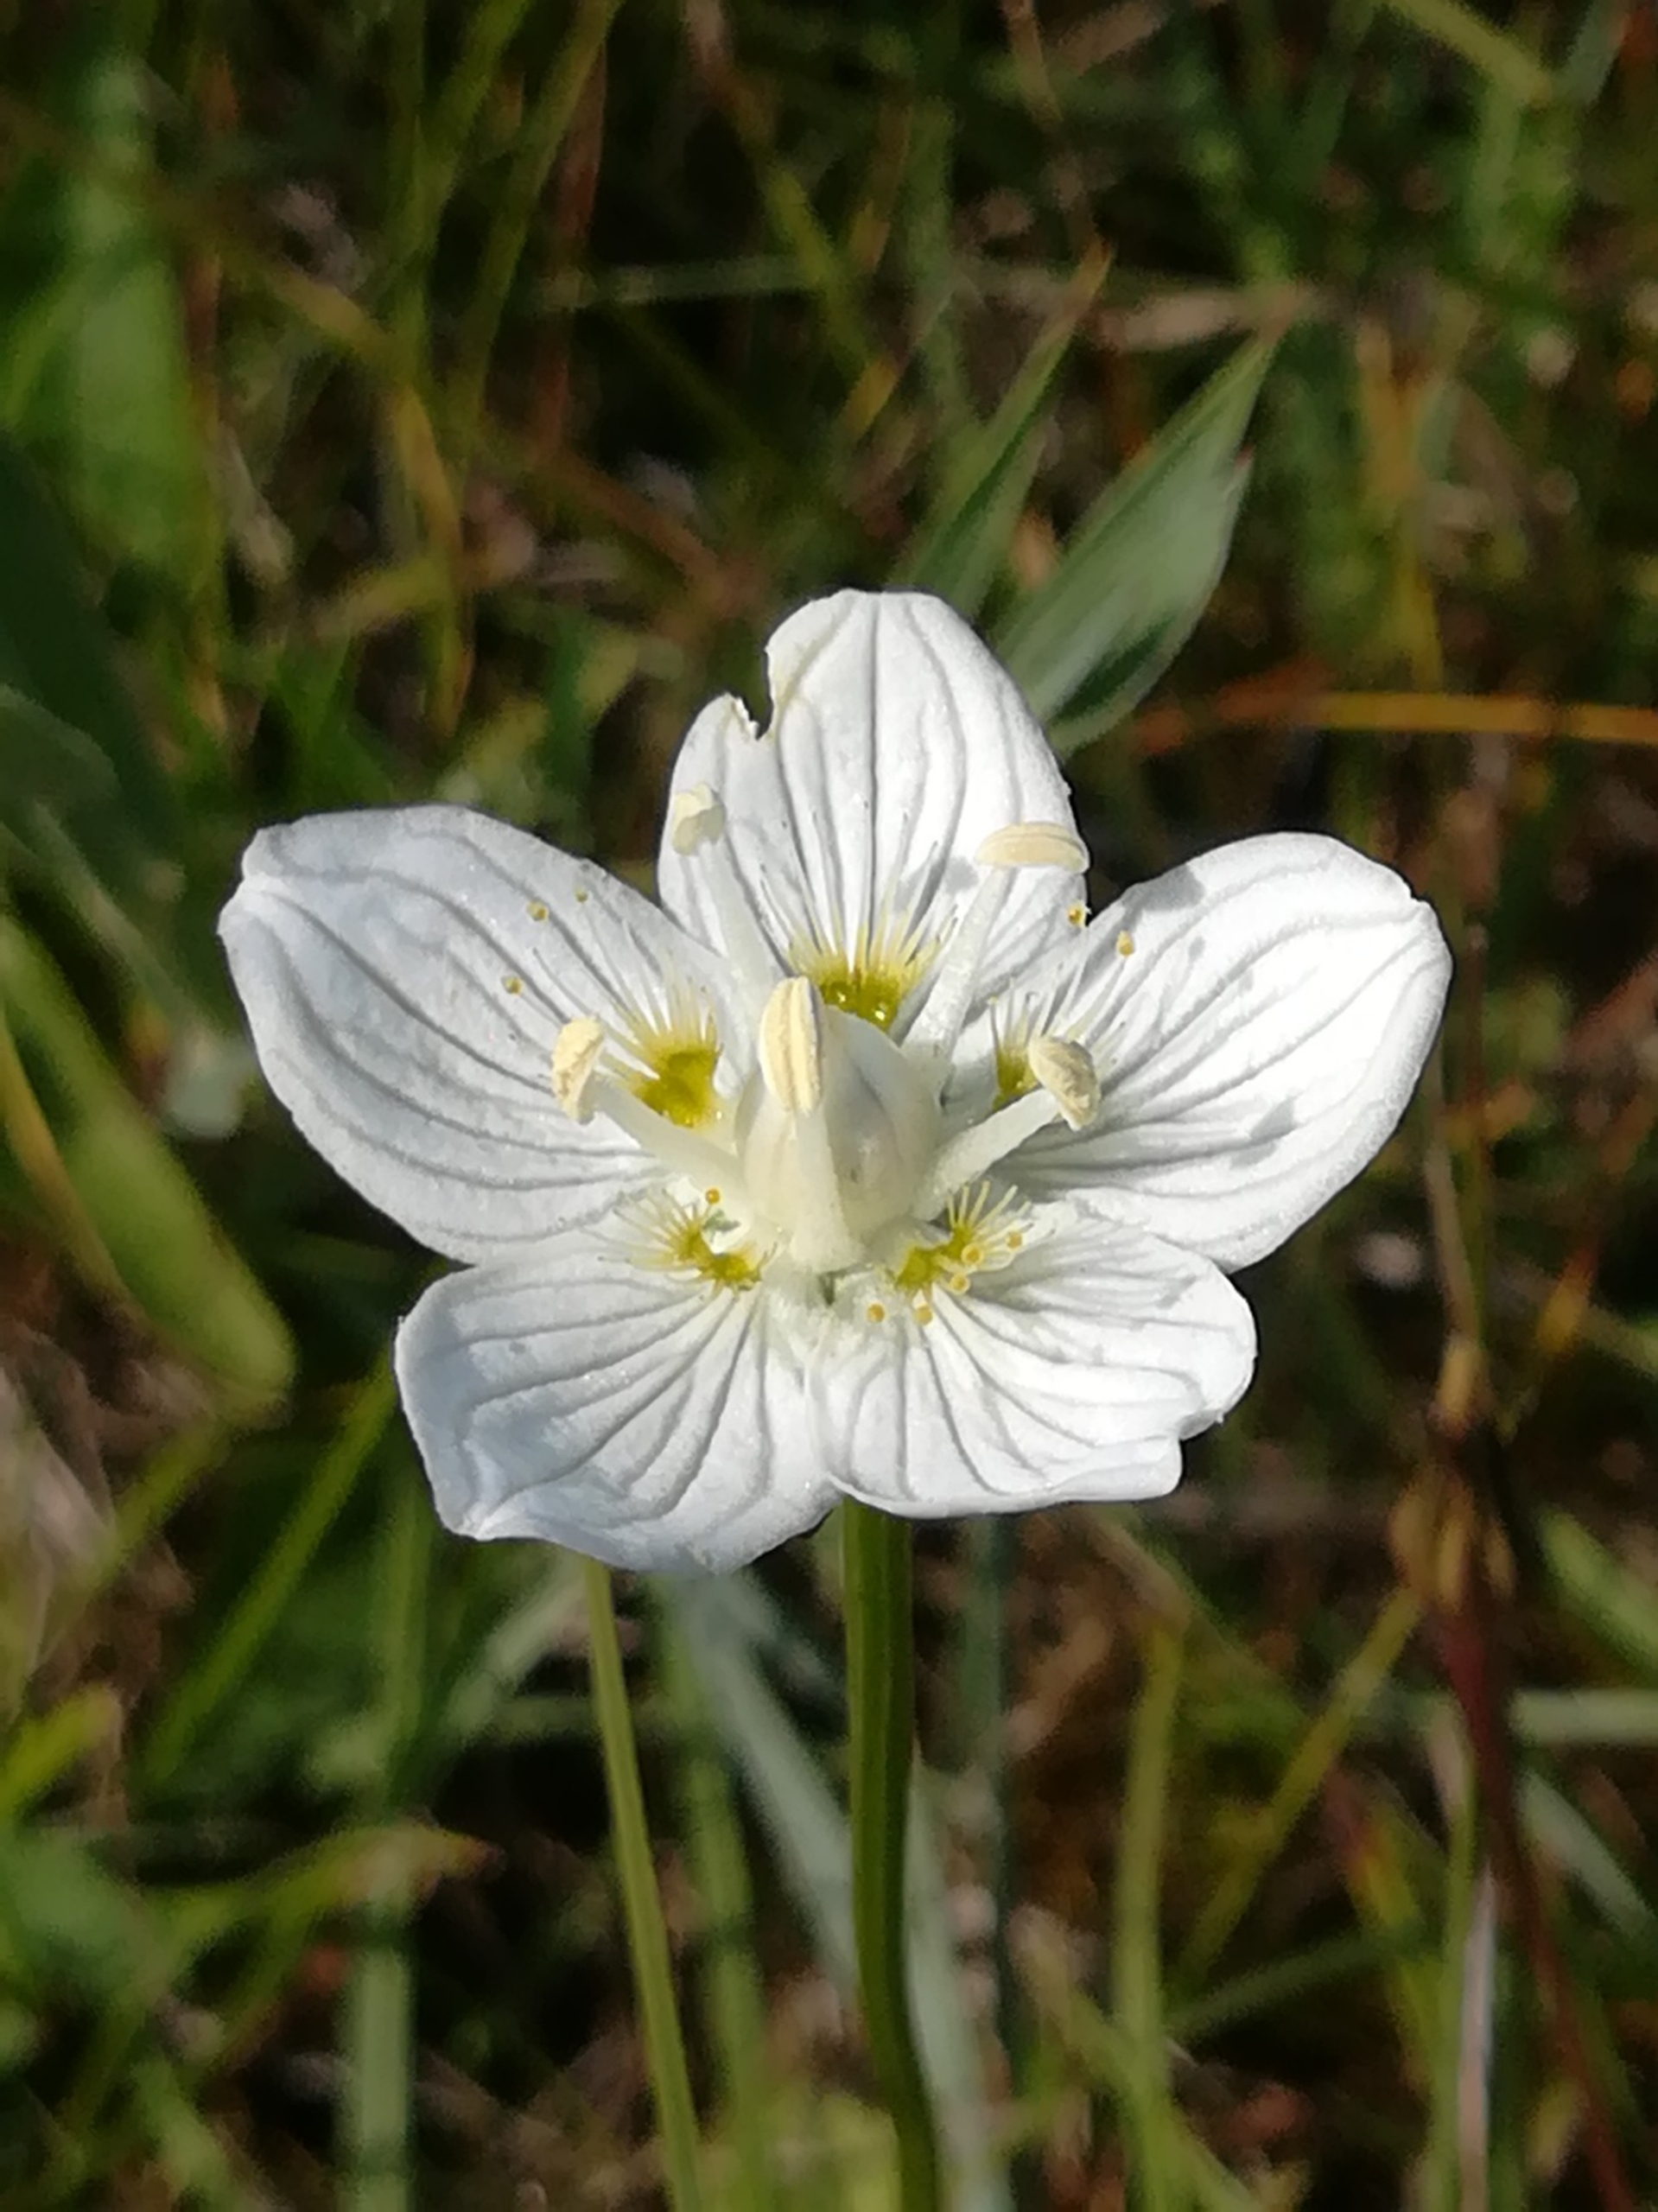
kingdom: Plantae
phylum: Tracheophyta
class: Magnoliopsida
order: Celastrales
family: Parnassiaceae
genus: Parnassia
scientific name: Parnassia palustris
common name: Leverurt
